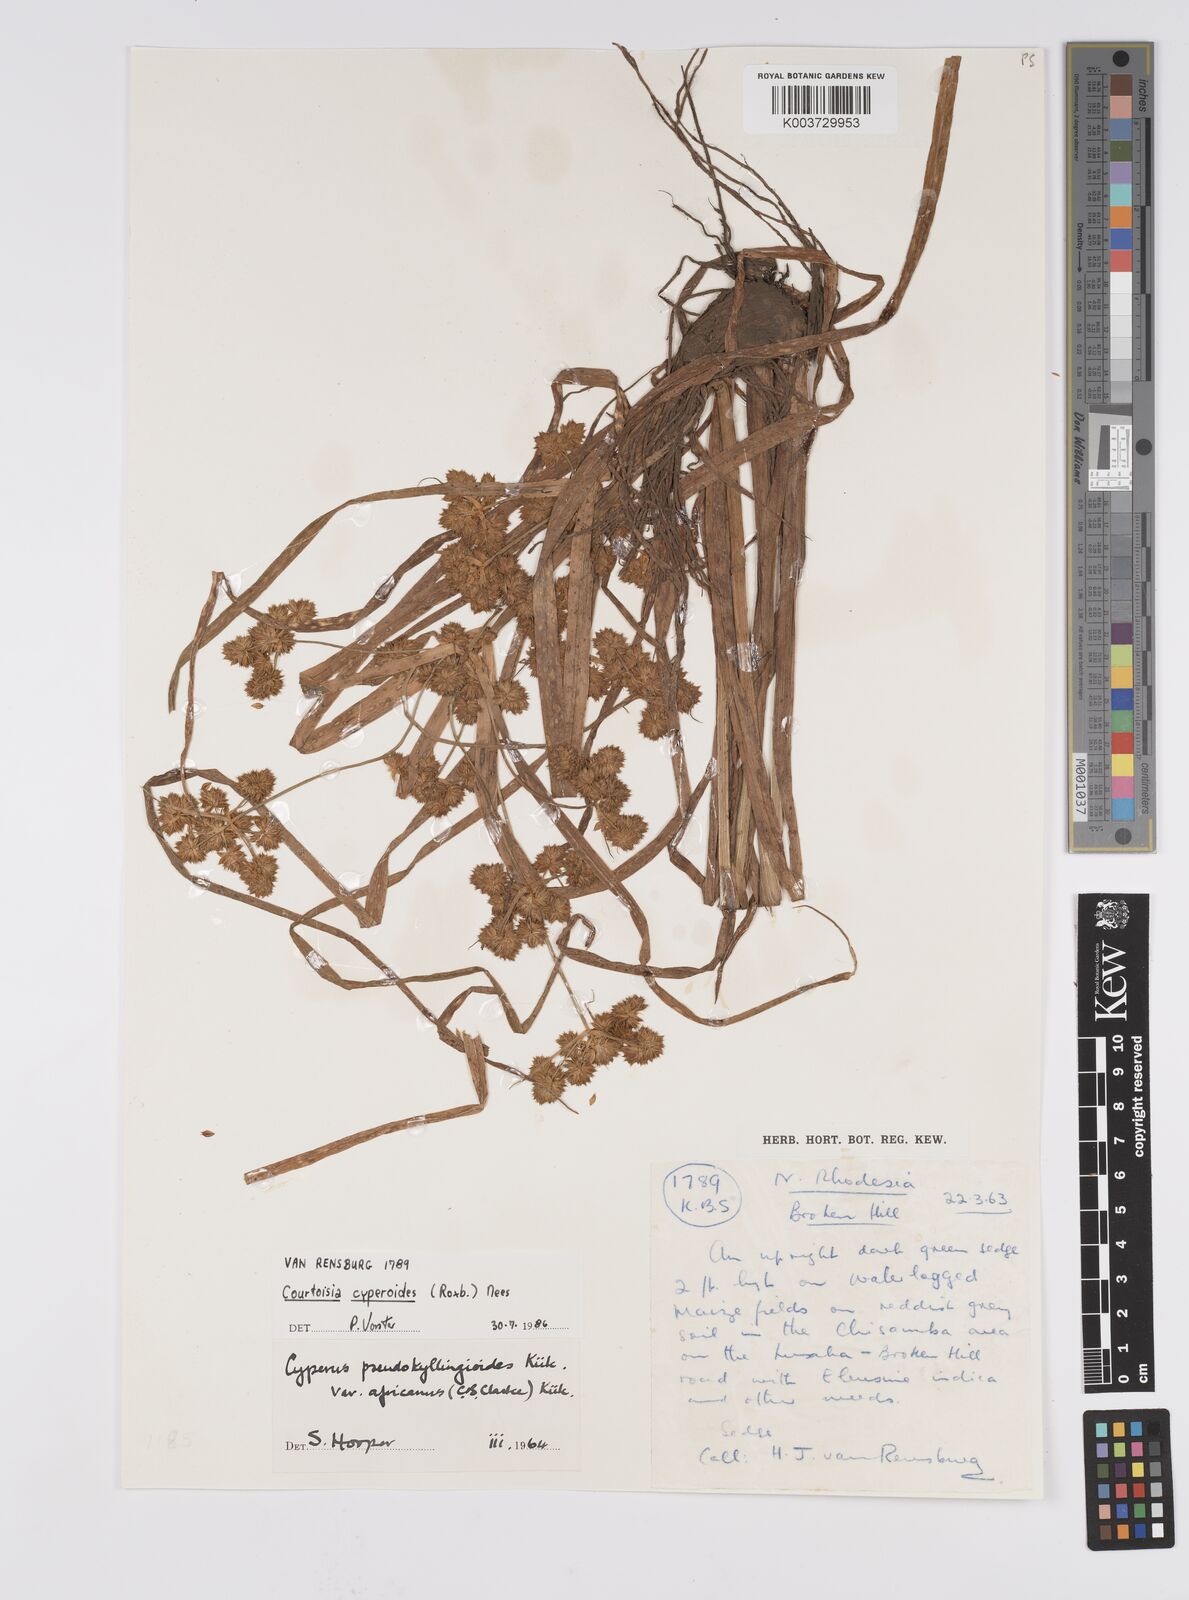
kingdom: Plantae
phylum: Tracheophyta
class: Liliopsida
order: Poales
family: Cyperaceae
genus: Cyperus
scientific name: Cyperus cyperoides
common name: Pacific island flat sedge
